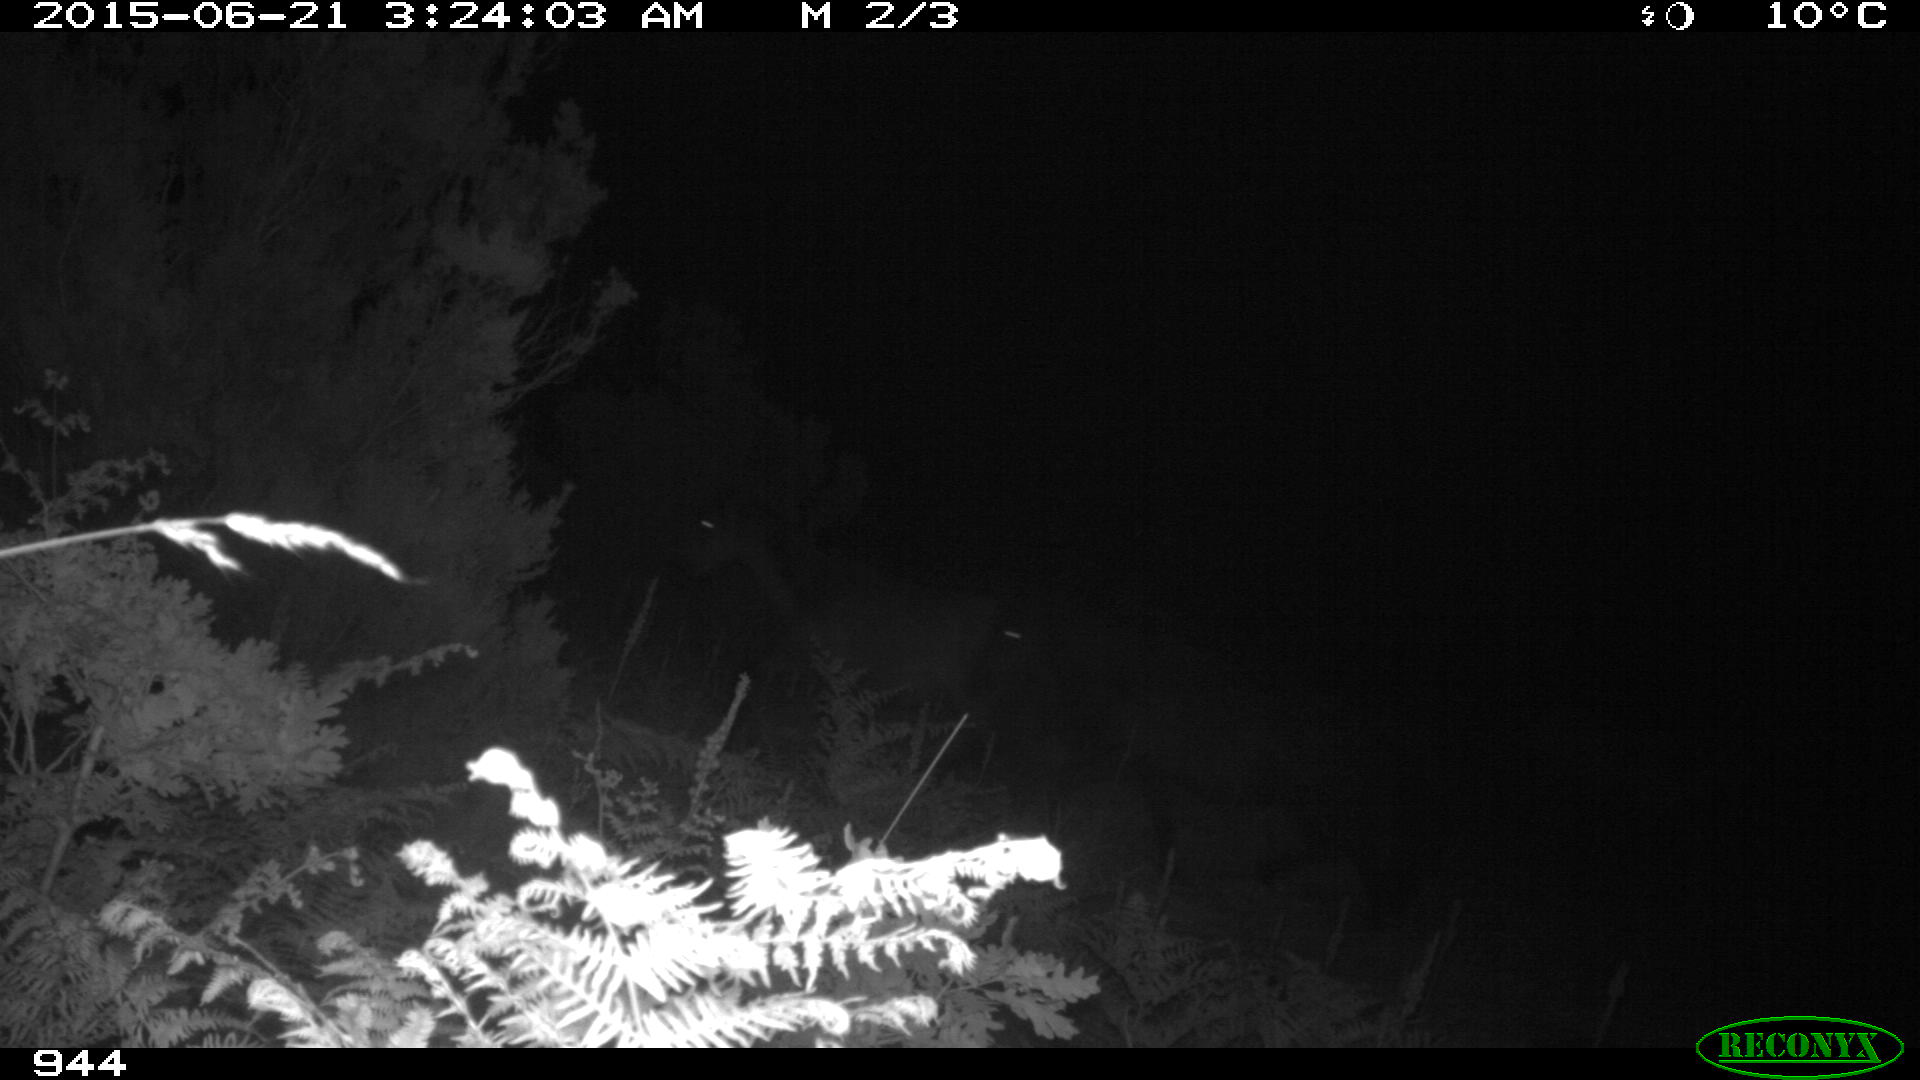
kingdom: Animalia
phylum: Chordata
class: Mammalia
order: Perissodactyla
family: Equidae
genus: Equus
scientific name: Equus caballus
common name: Horse
